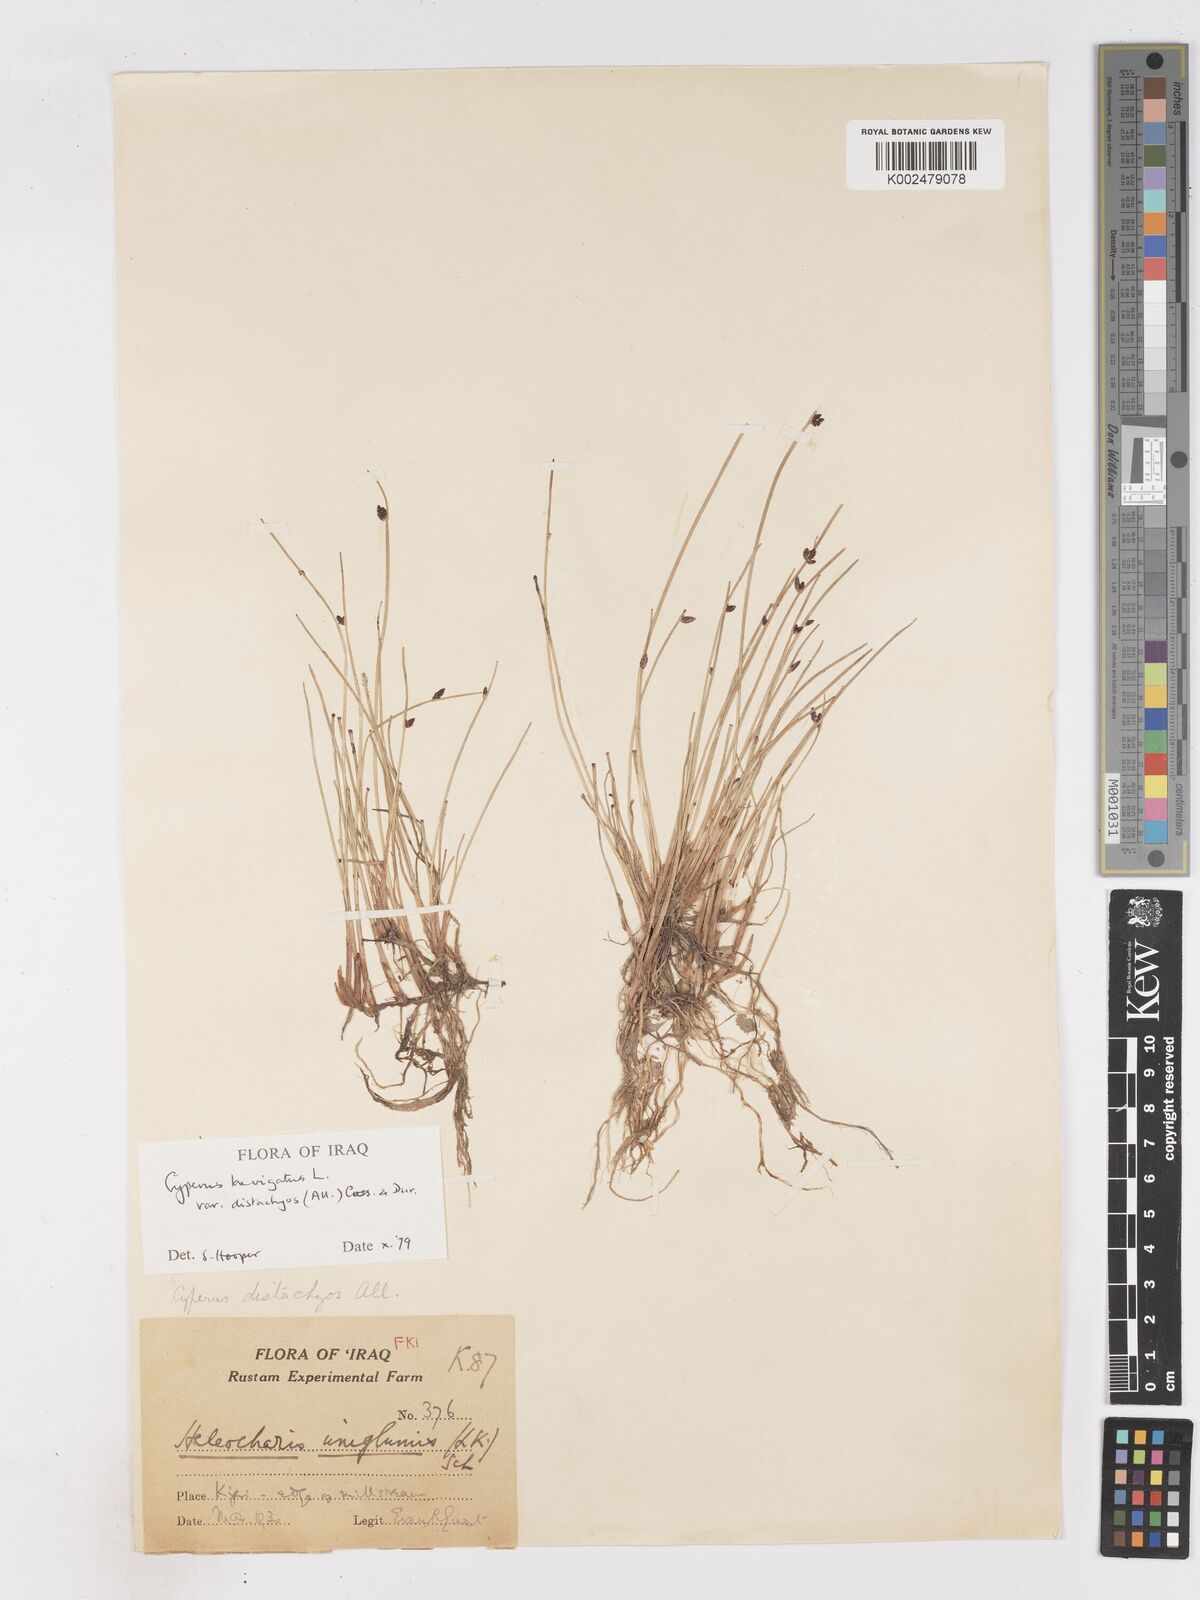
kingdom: Plantae
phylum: Tracheophyta
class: Liliopsida
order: Poales
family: Cyperaceae
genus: Cyperus
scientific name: Cyperus laevigatus
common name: Smooth flat sedge
